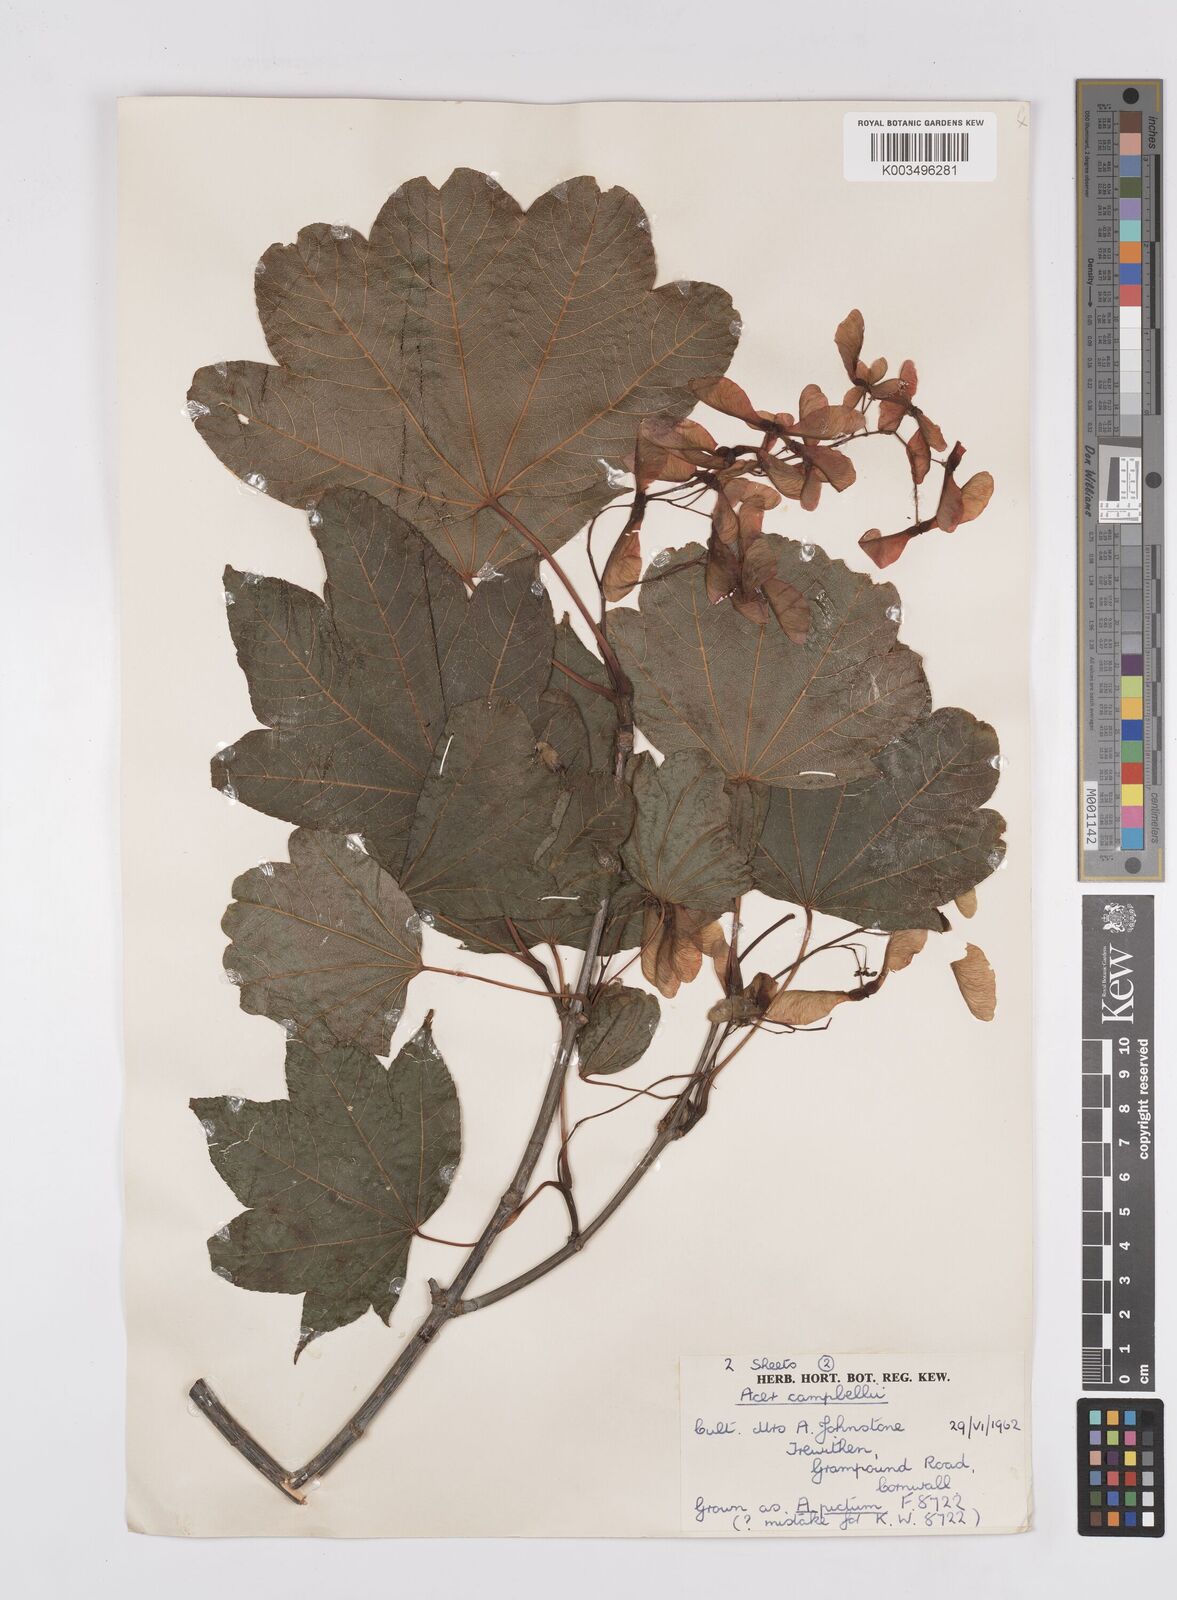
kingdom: Plantae
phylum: Tracheophyta
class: Magnoliopsida
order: Sapindales
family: Sapindaceae
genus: Acer
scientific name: Acer campbellii
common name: Campbell's maple
